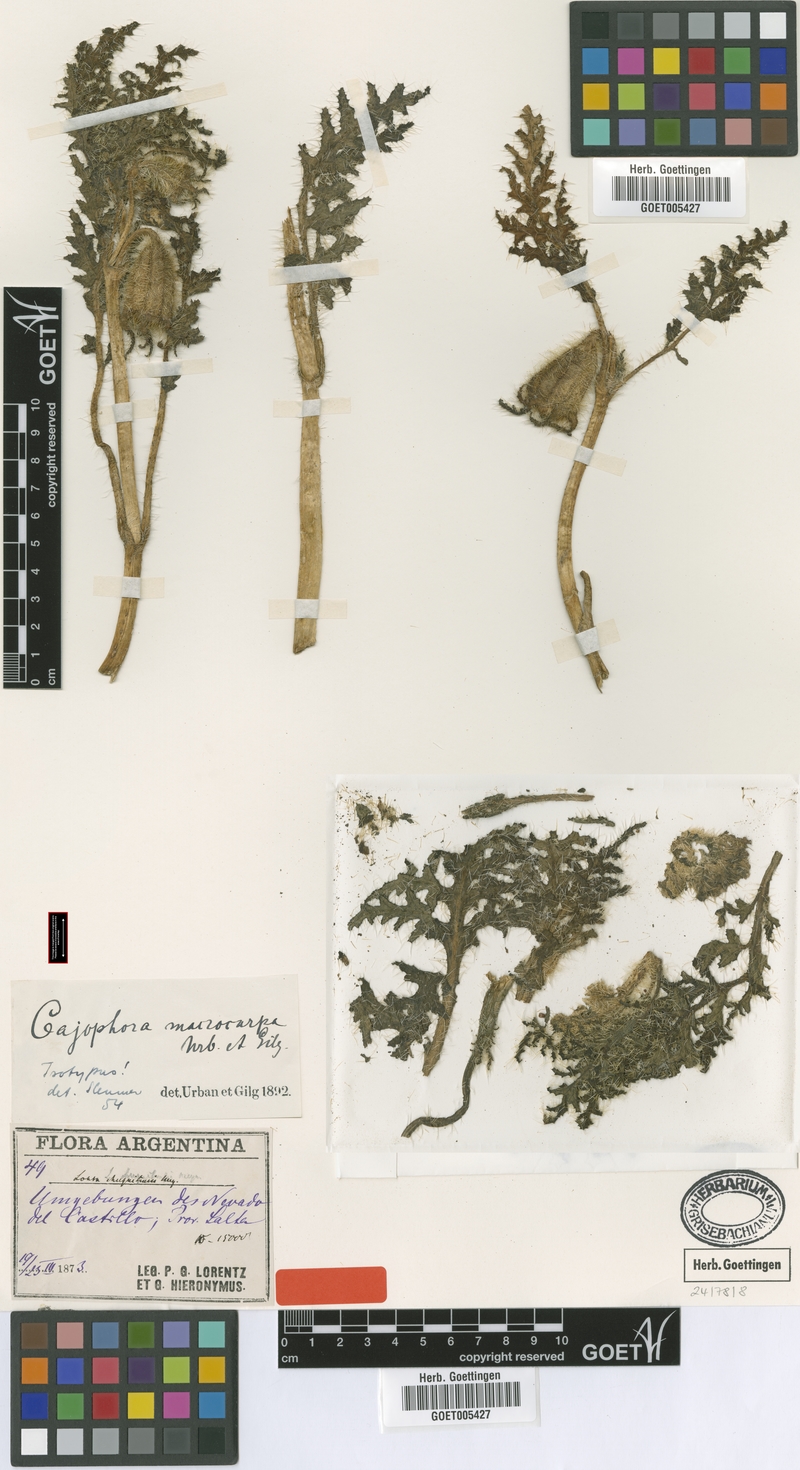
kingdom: Plantae
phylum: Tracheophyta
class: Magnoliopsida
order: Cornales
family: Loasaceae
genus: Caiophora
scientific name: Caiophora chuquitensis
